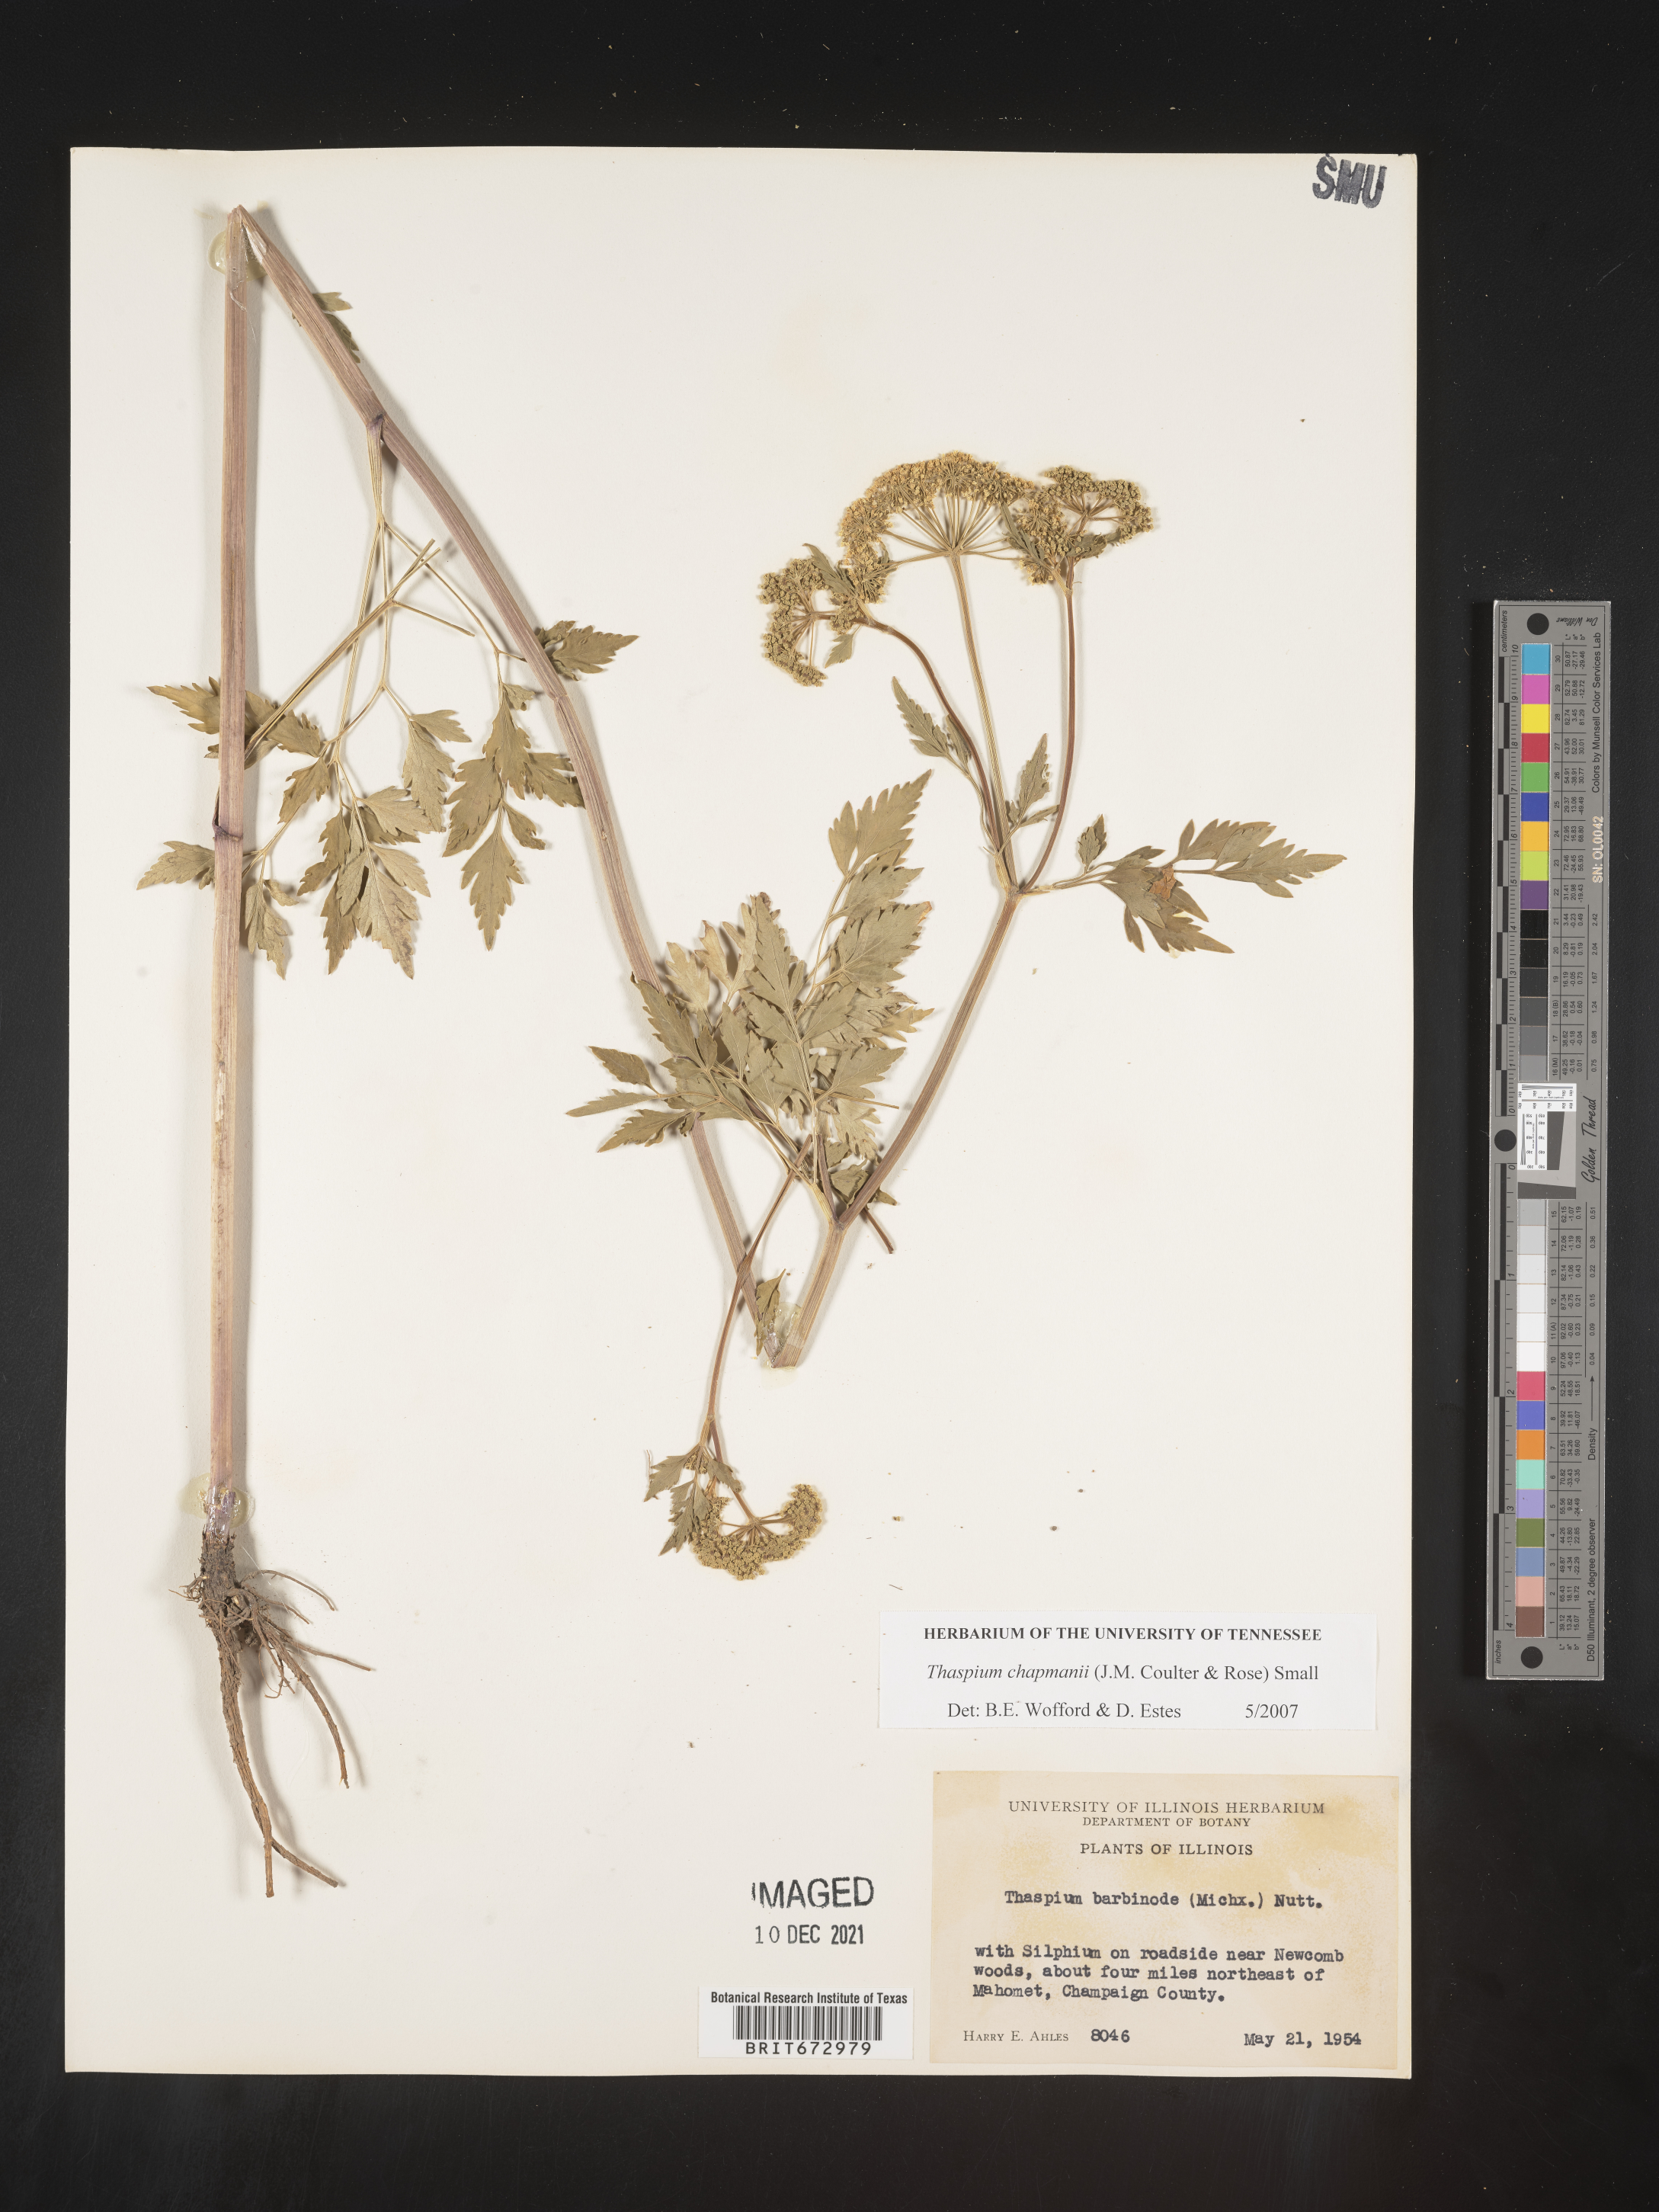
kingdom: Plantae
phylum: Tracheophyta
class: Magnoliopsida
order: Apiales
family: Apiaceae
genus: Thaspium
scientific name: Thaspium barbinode
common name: Bearded meadow-parsnip
